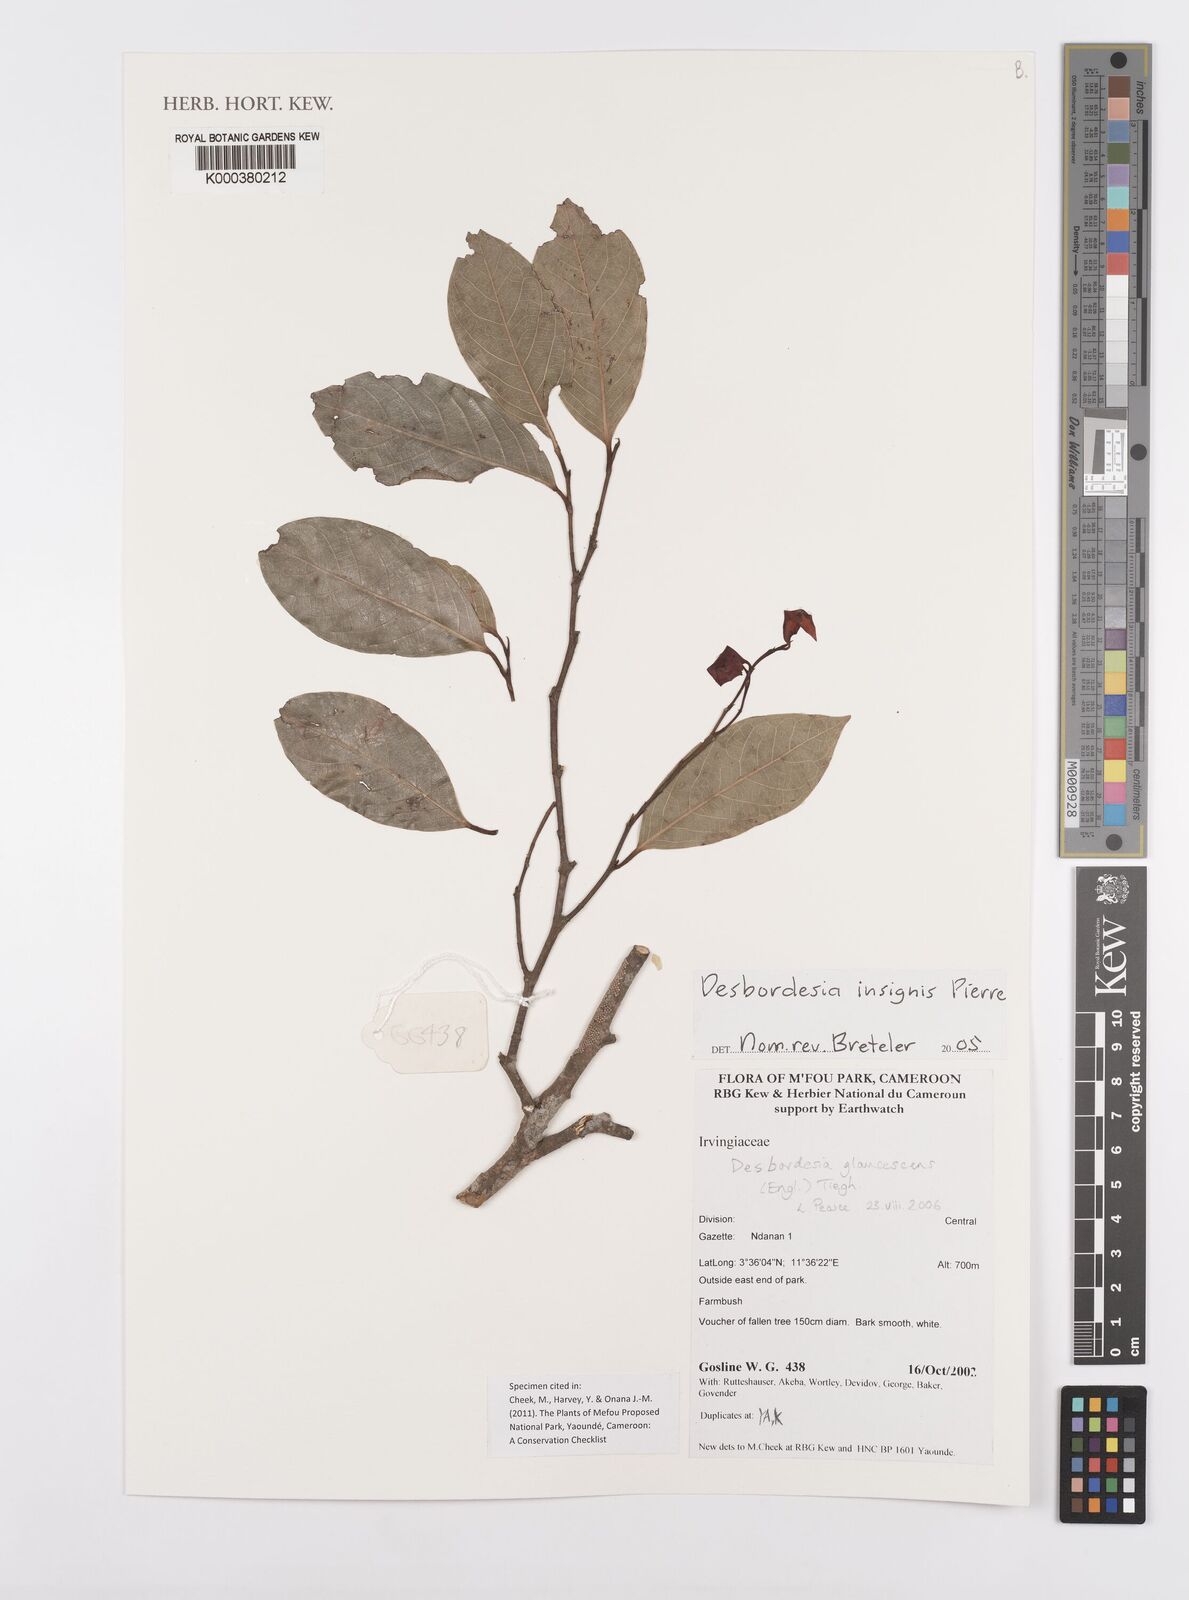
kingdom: Plantae
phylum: Tracheophyta
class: Magnoliopsida
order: Malpighiales
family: Irvingiaceae
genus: Desbordesia
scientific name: Desbordesia glaucescens
